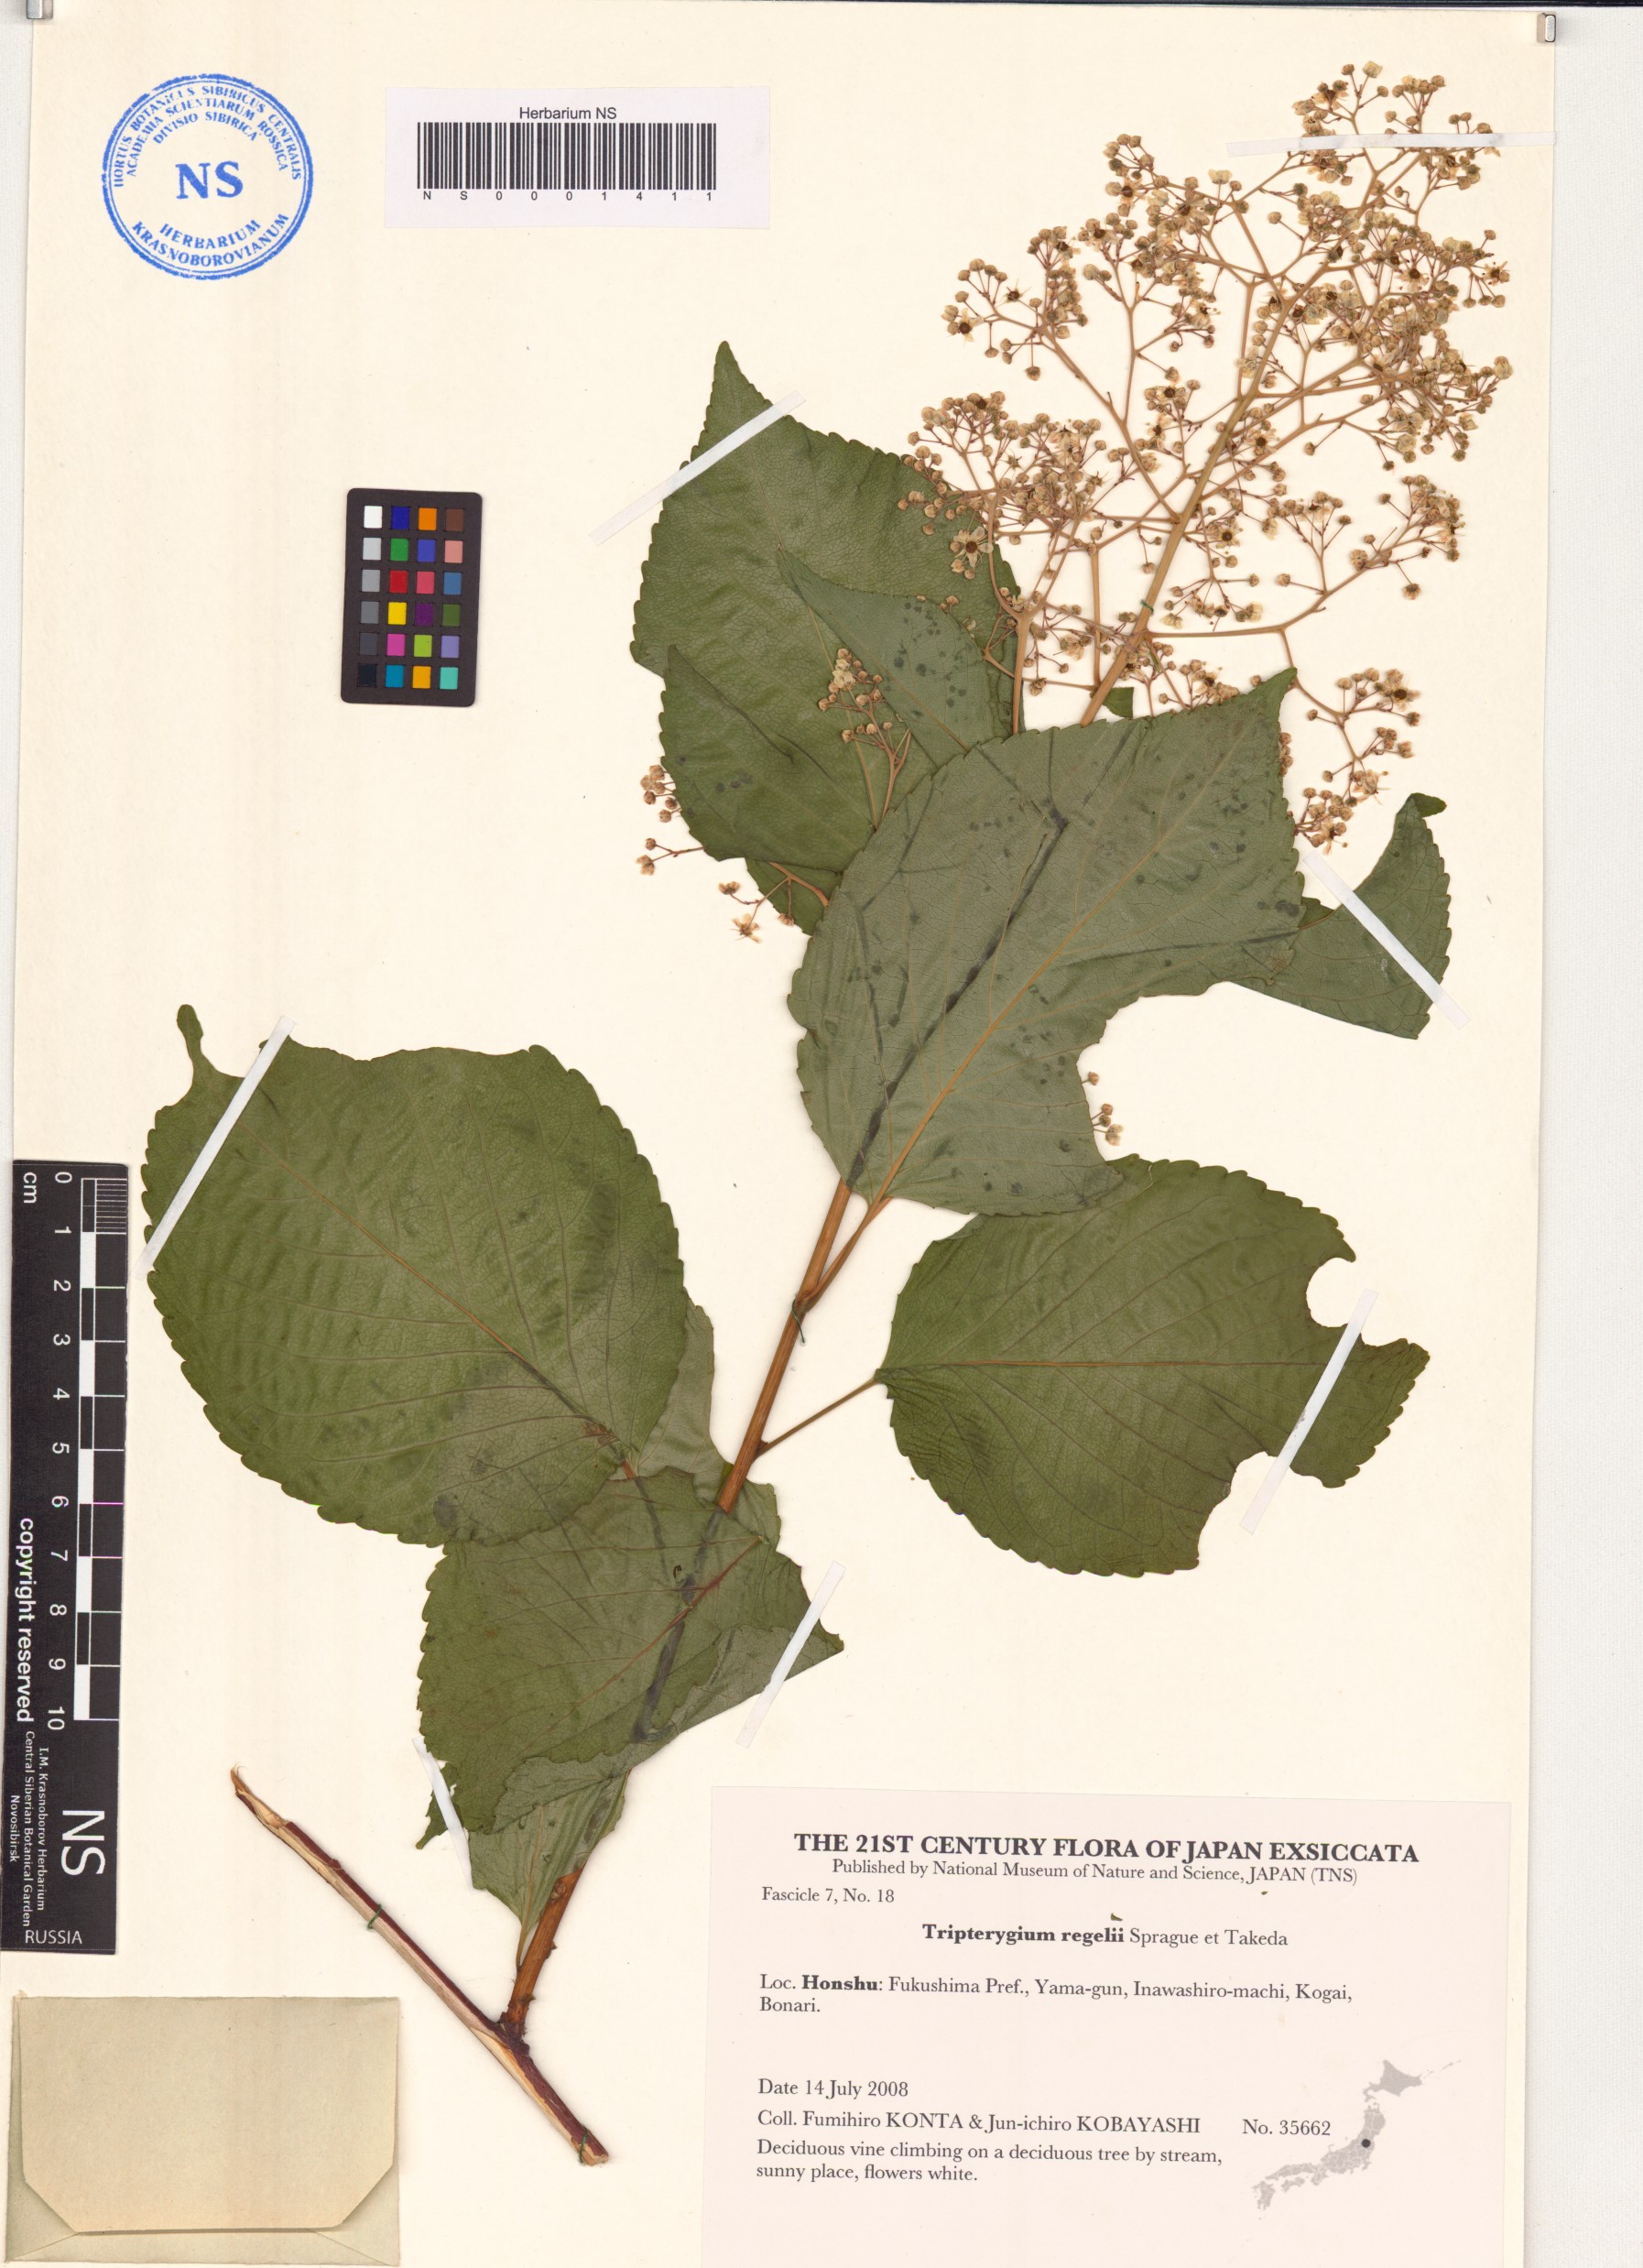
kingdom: Plantae
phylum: Tracheophyta
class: Magnoliopsida
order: Celastrales
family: Celastraceae
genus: Tripterygium
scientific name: Tripterygium wilfordii
